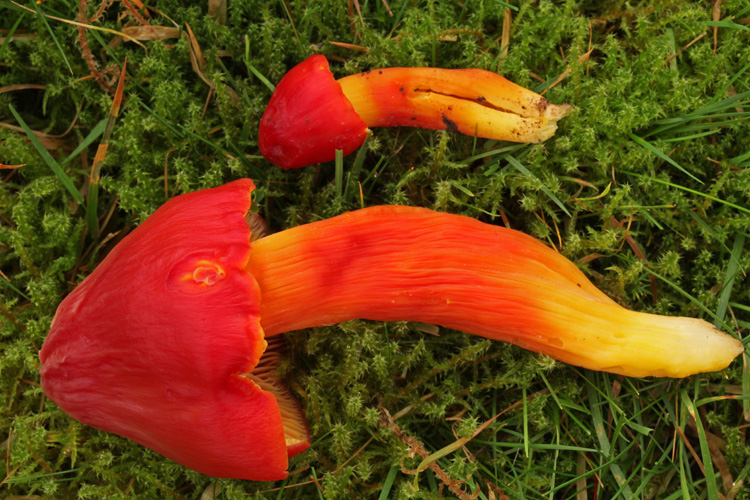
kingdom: Fungi
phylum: Basidiomycota
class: Agaricomycetes
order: Agaricales
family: Hygrophoraceae
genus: Hygrocybe
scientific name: Hygrocybe splendidissima
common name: knaldrød vokshat
